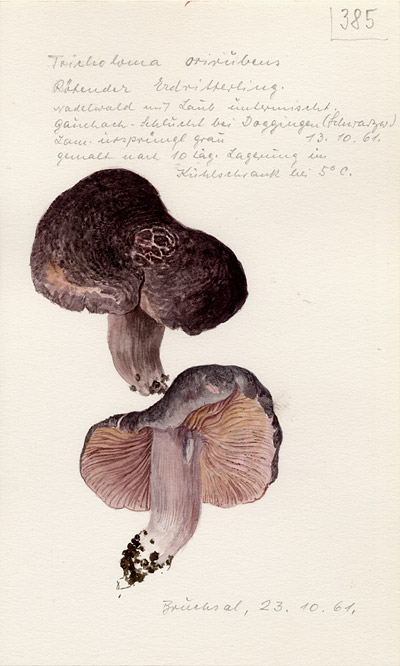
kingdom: Fungi
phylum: Basidiomycota
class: Agaricomycetes
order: Agaricales
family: Tricholomataceae
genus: Tricholoma
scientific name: Tricholoma orirubens
